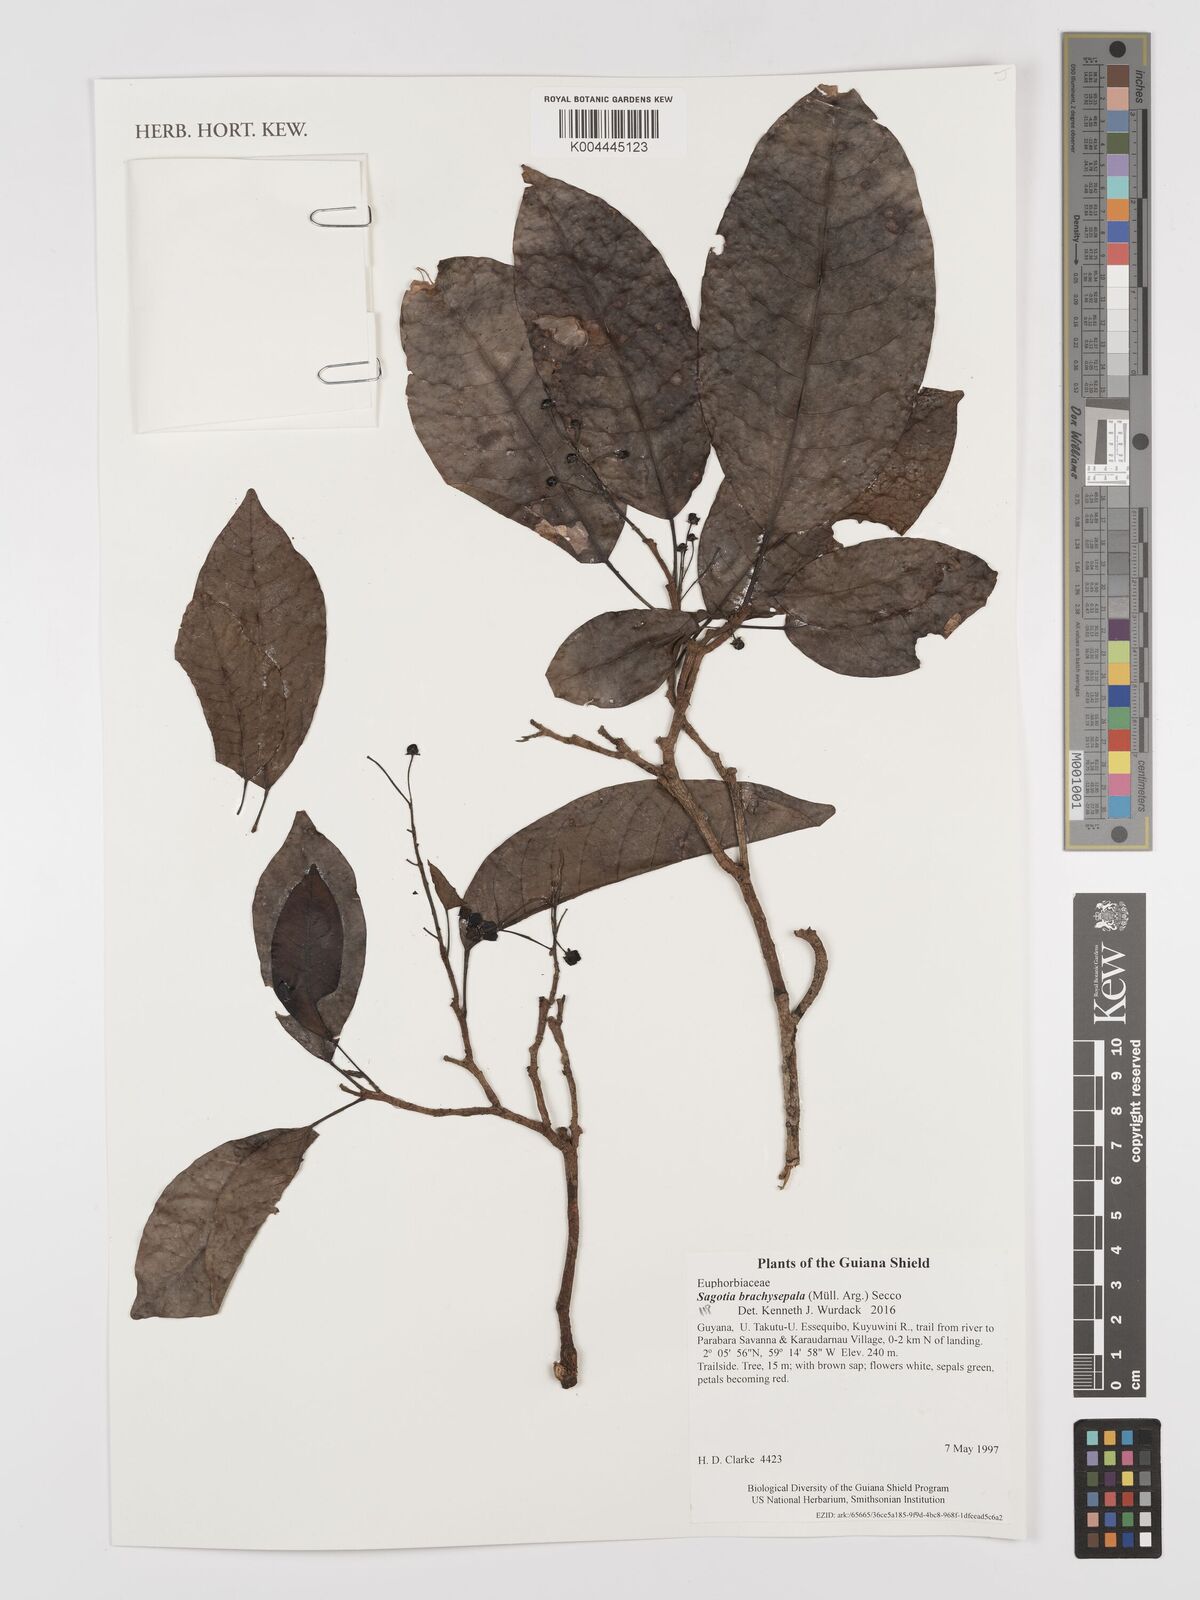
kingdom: Plantae
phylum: Tracheophyta
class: Magnoliopsida
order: Malpighiales
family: Euphorbiaceae
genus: Sagotia
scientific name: Sagotia brachysepala
